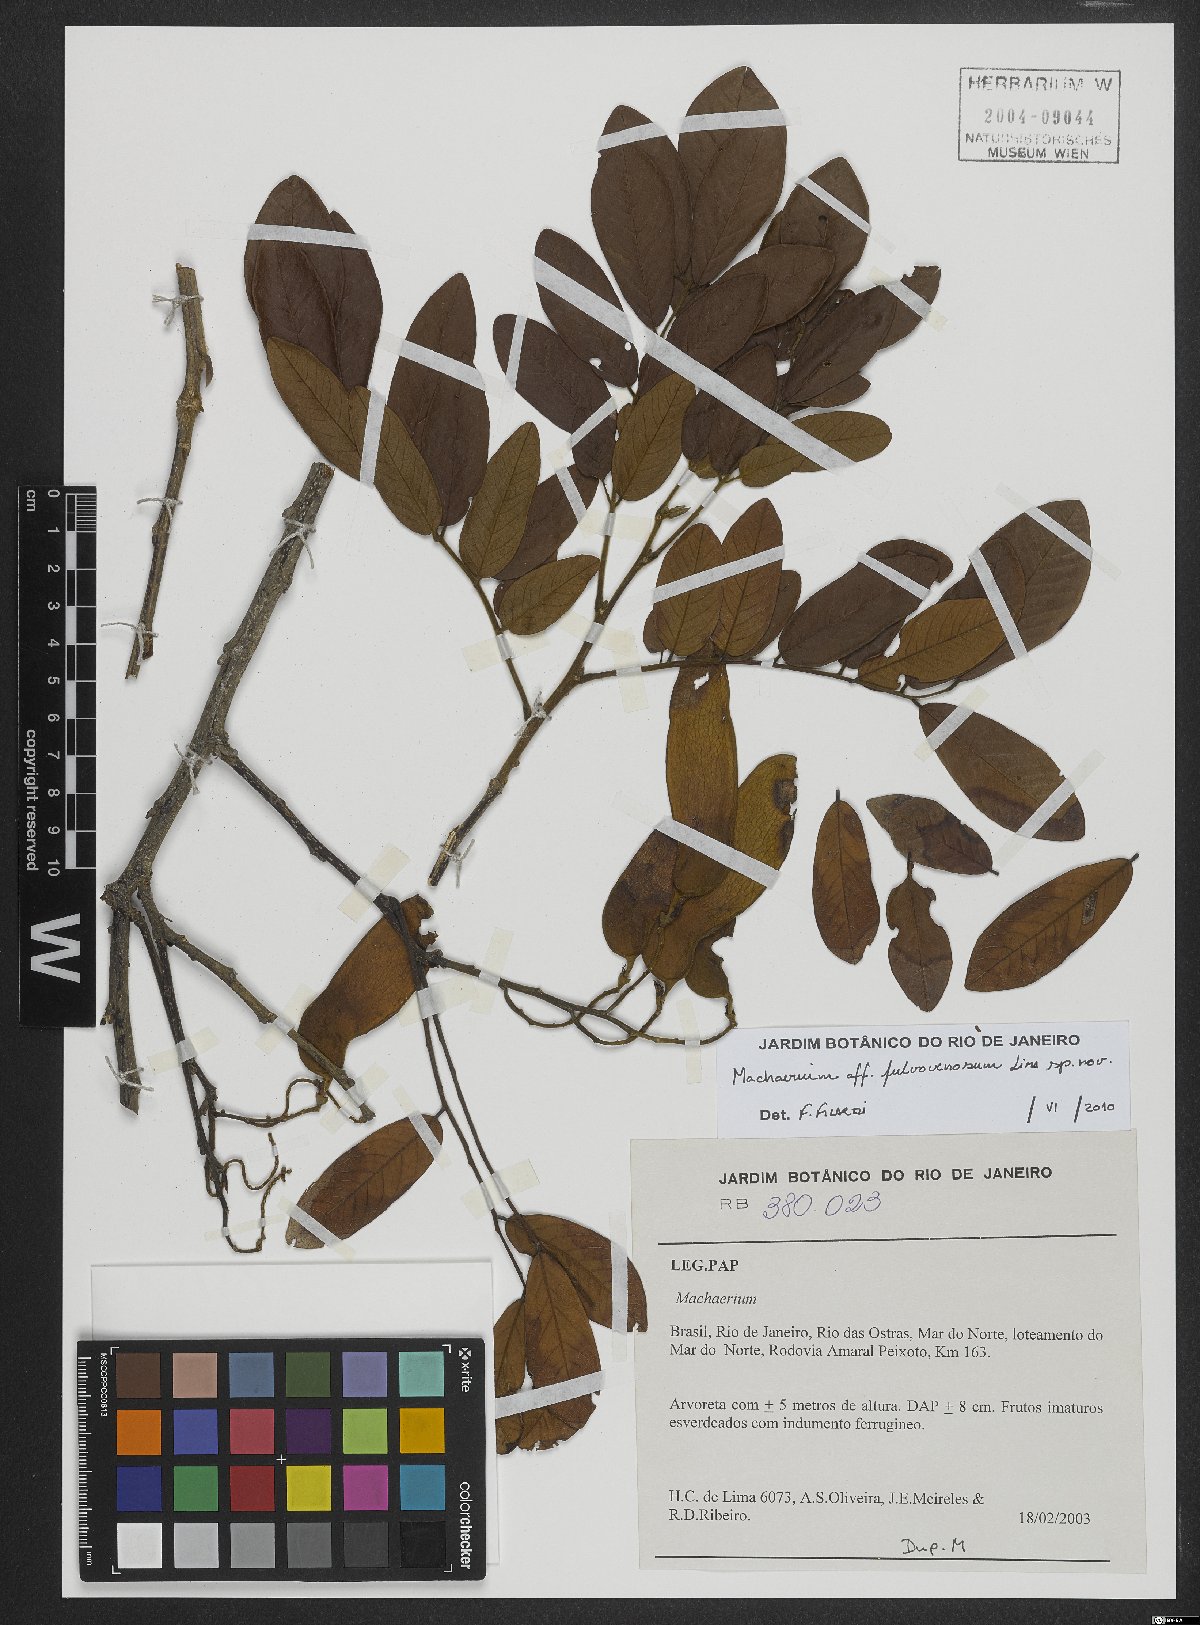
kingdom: Plantae
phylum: Tracheophyta
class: Magnoliopsida
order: Fabales
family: Fabaceae
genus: Machaerium
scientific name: Machaerium fulvovenosum
